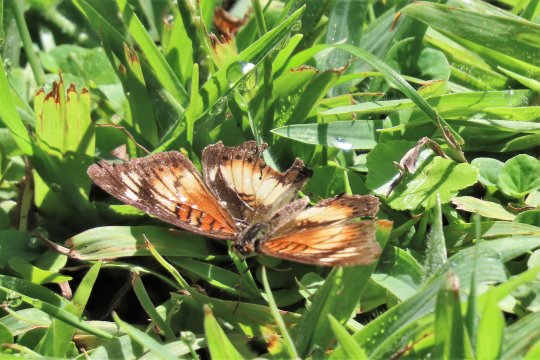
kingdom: Animalia
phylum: Arthropoda
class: Insecta
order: Lepidoptera
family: Nymphalidae
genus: Junonia
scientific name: Junonia sophia
